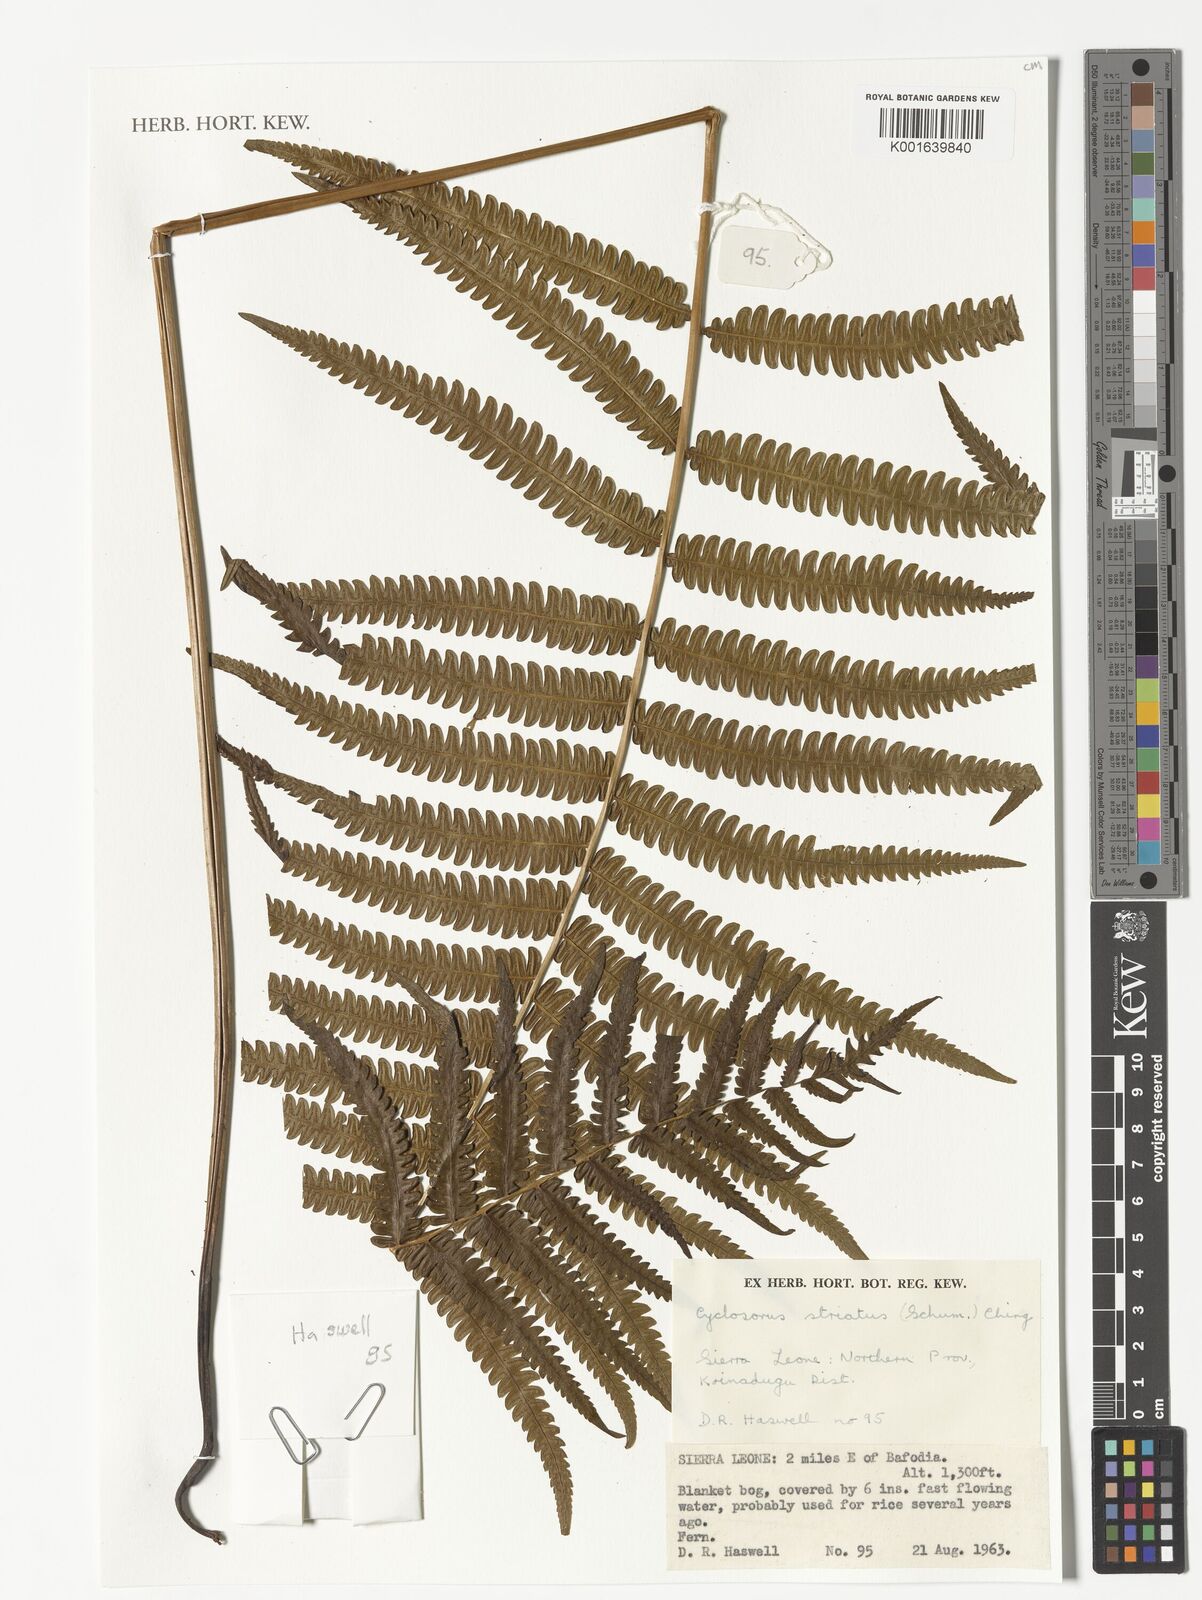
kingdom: Plantae
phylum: Tracheophyta
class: Polypodiopsida
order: Polypodiales
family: Thelypteridaceae
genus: Cyclosorus
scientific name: Cyclosorus striatus
